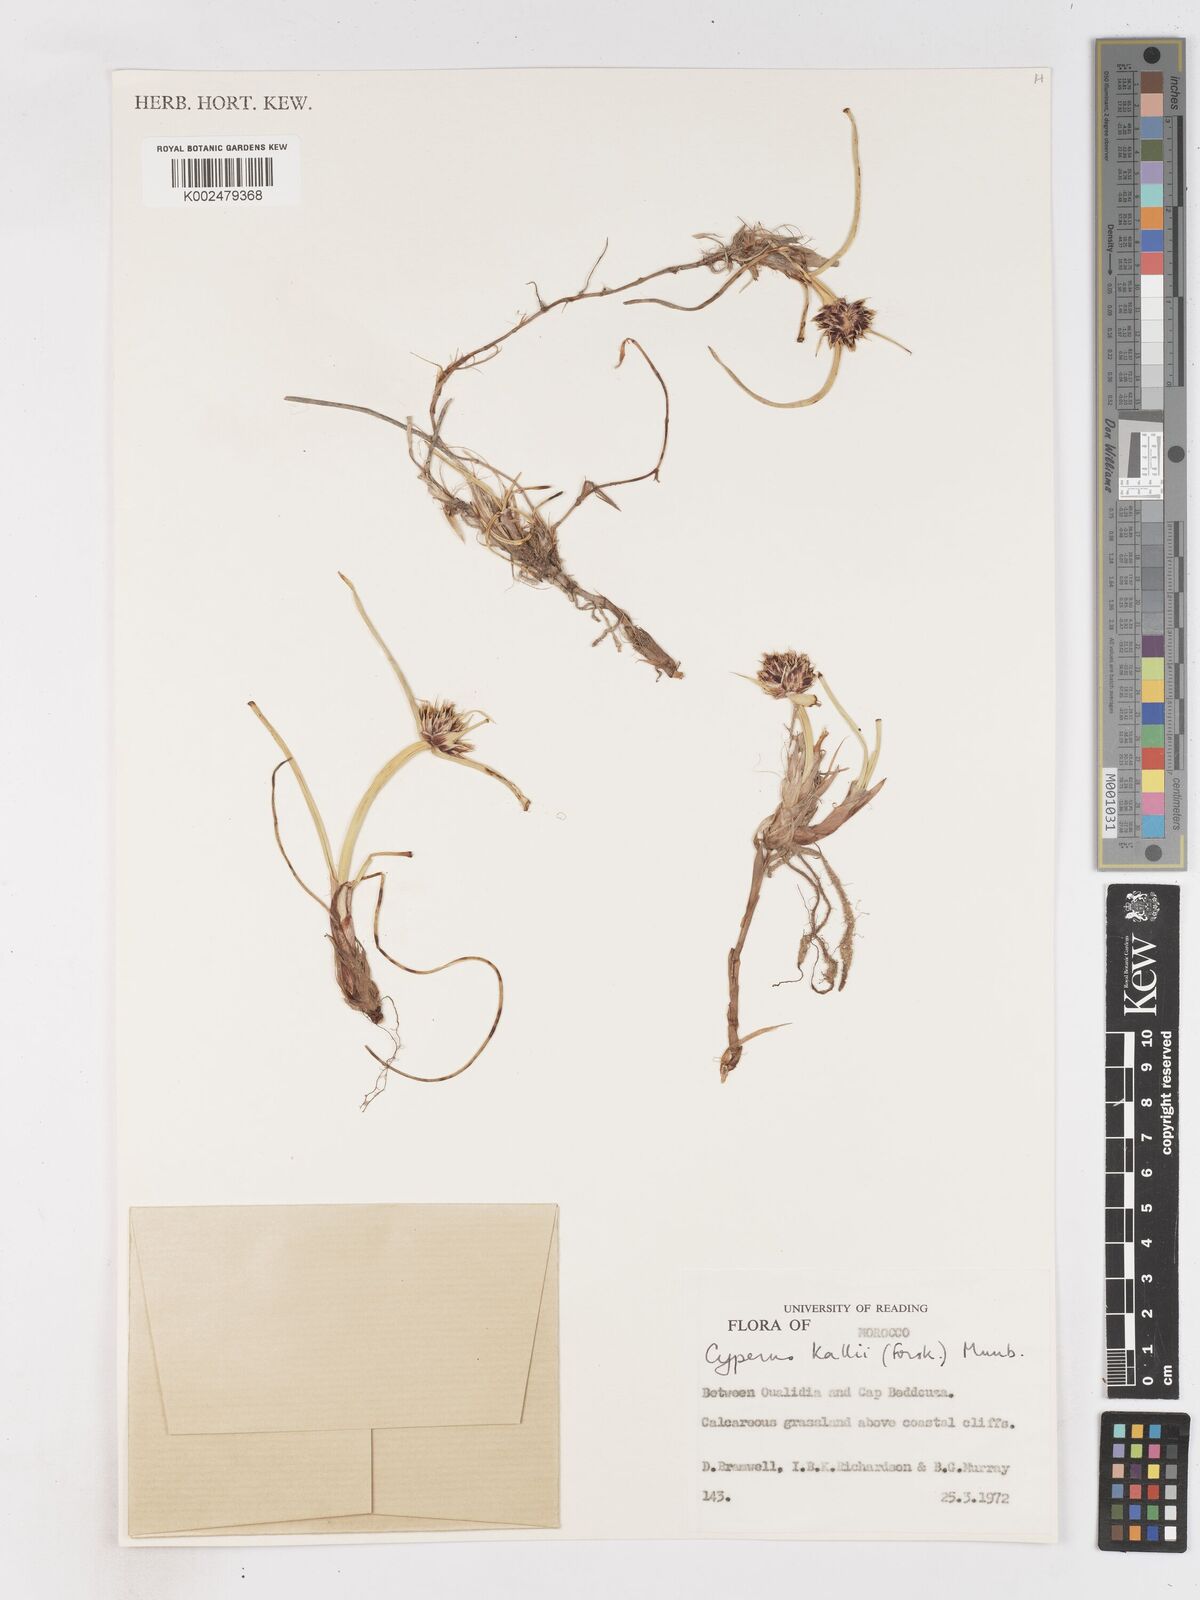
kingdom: Plantae
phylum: Tracheophyta
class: Liliopsida
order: Poales
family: Cyperaceae
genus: Cyperus
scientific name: Cyperus capitatus
